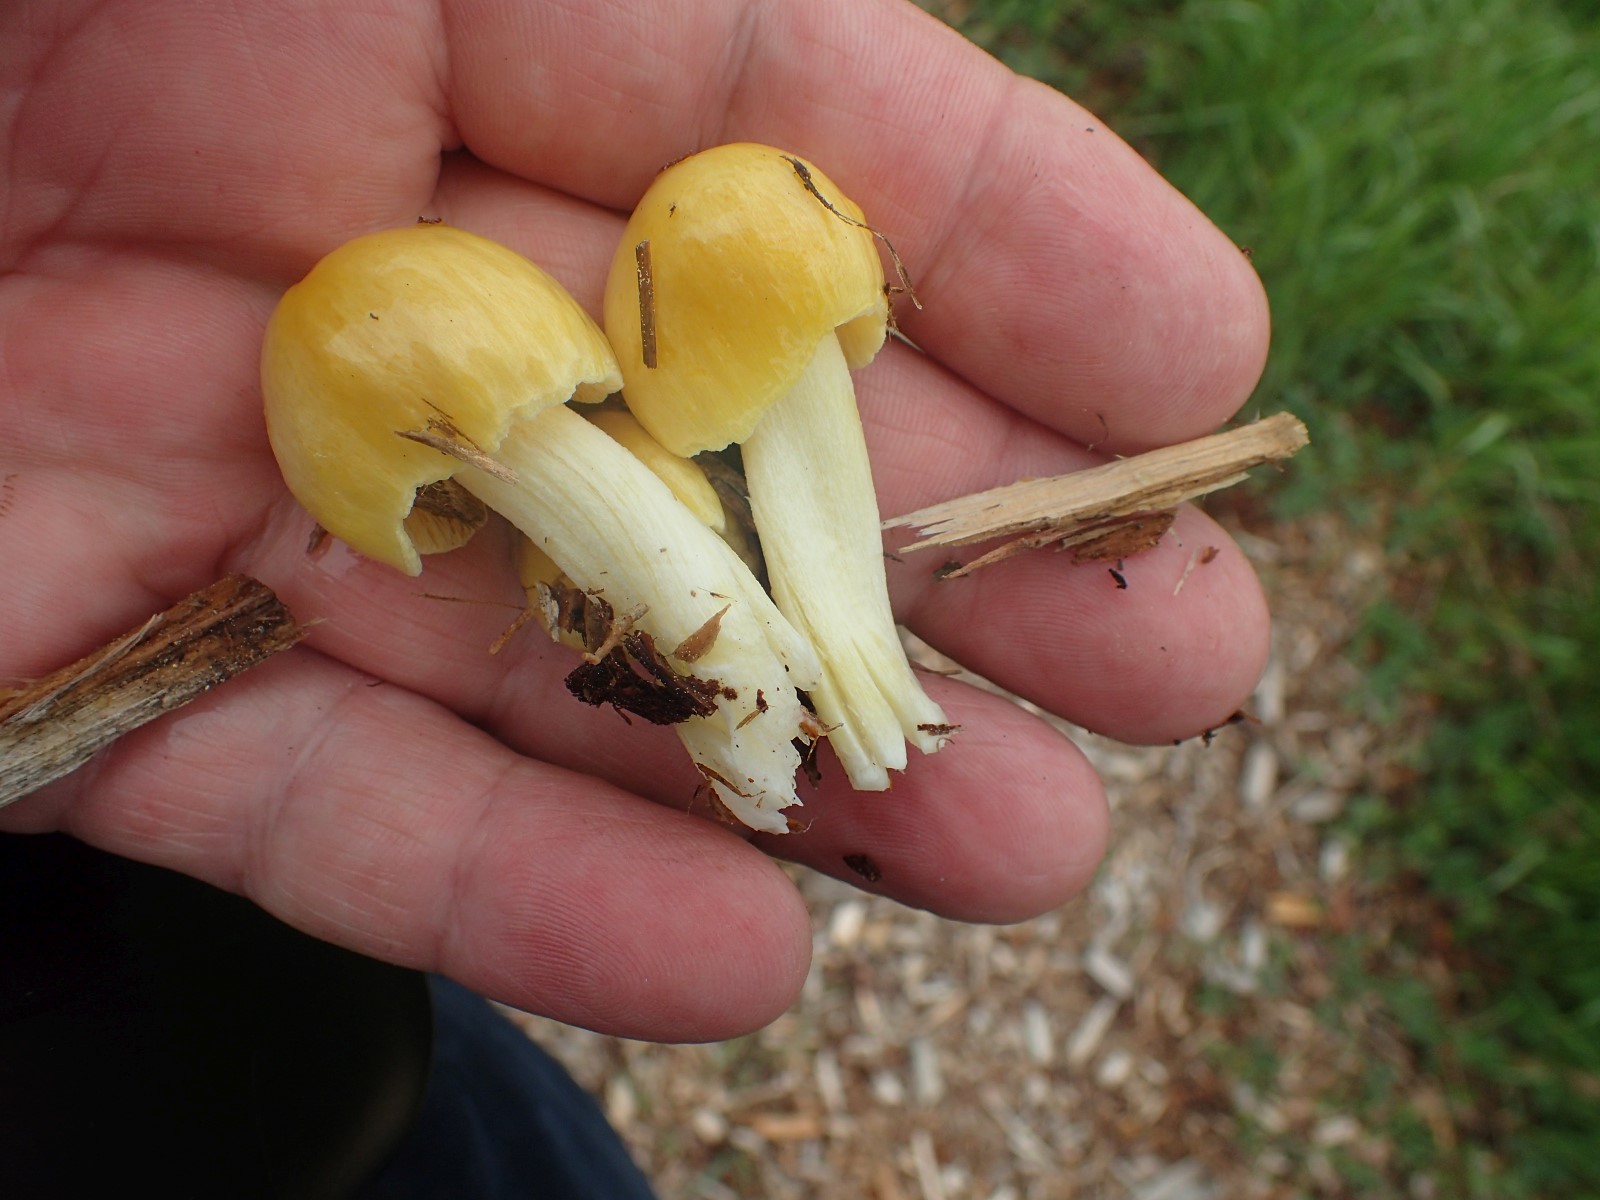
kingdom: Fungi
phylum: Basidiomycota
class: Agaricomycetes
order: Agaricales
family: Bolbitiaceae
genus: Bolbitius
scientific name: Bolbitius titubans
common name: almindelig gulhat
